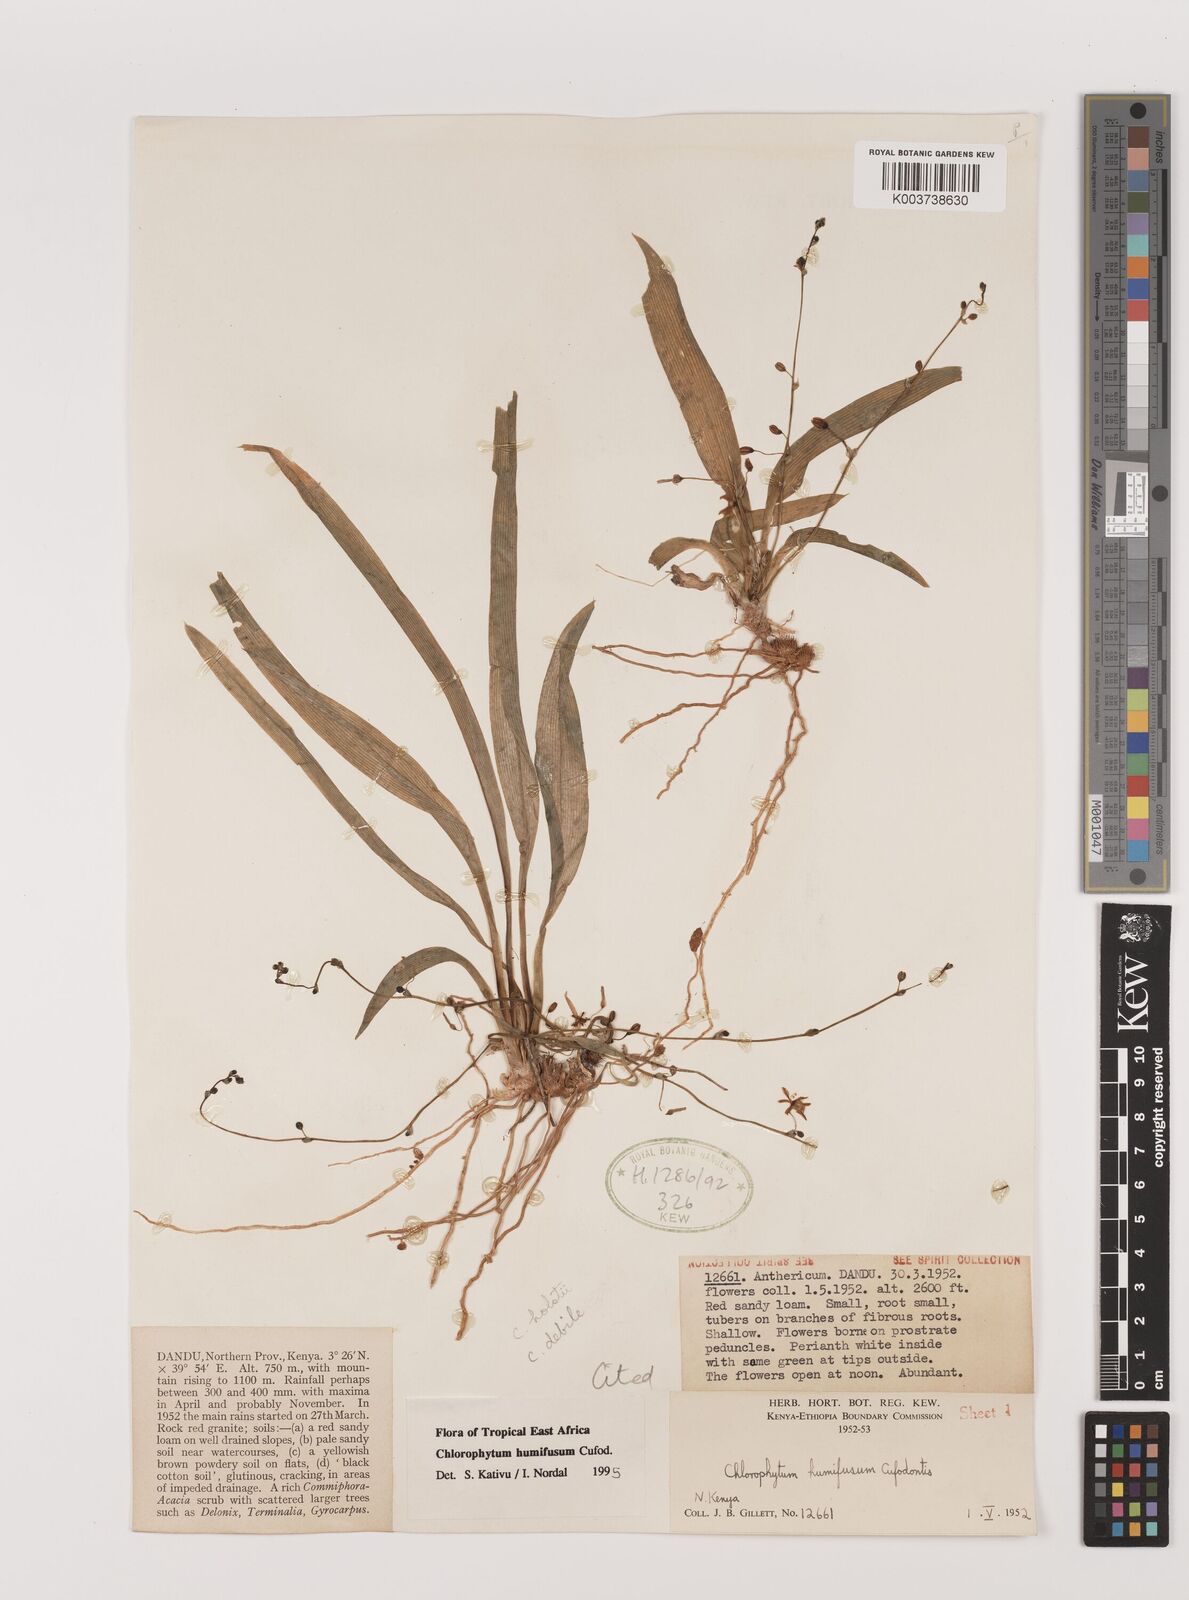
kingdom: Plantae
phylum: Tracheophyta
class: Liliopsida
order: Asparagales
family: Asparagaceae
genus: Chlorophytum
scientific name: Chlorophytum humifusum
